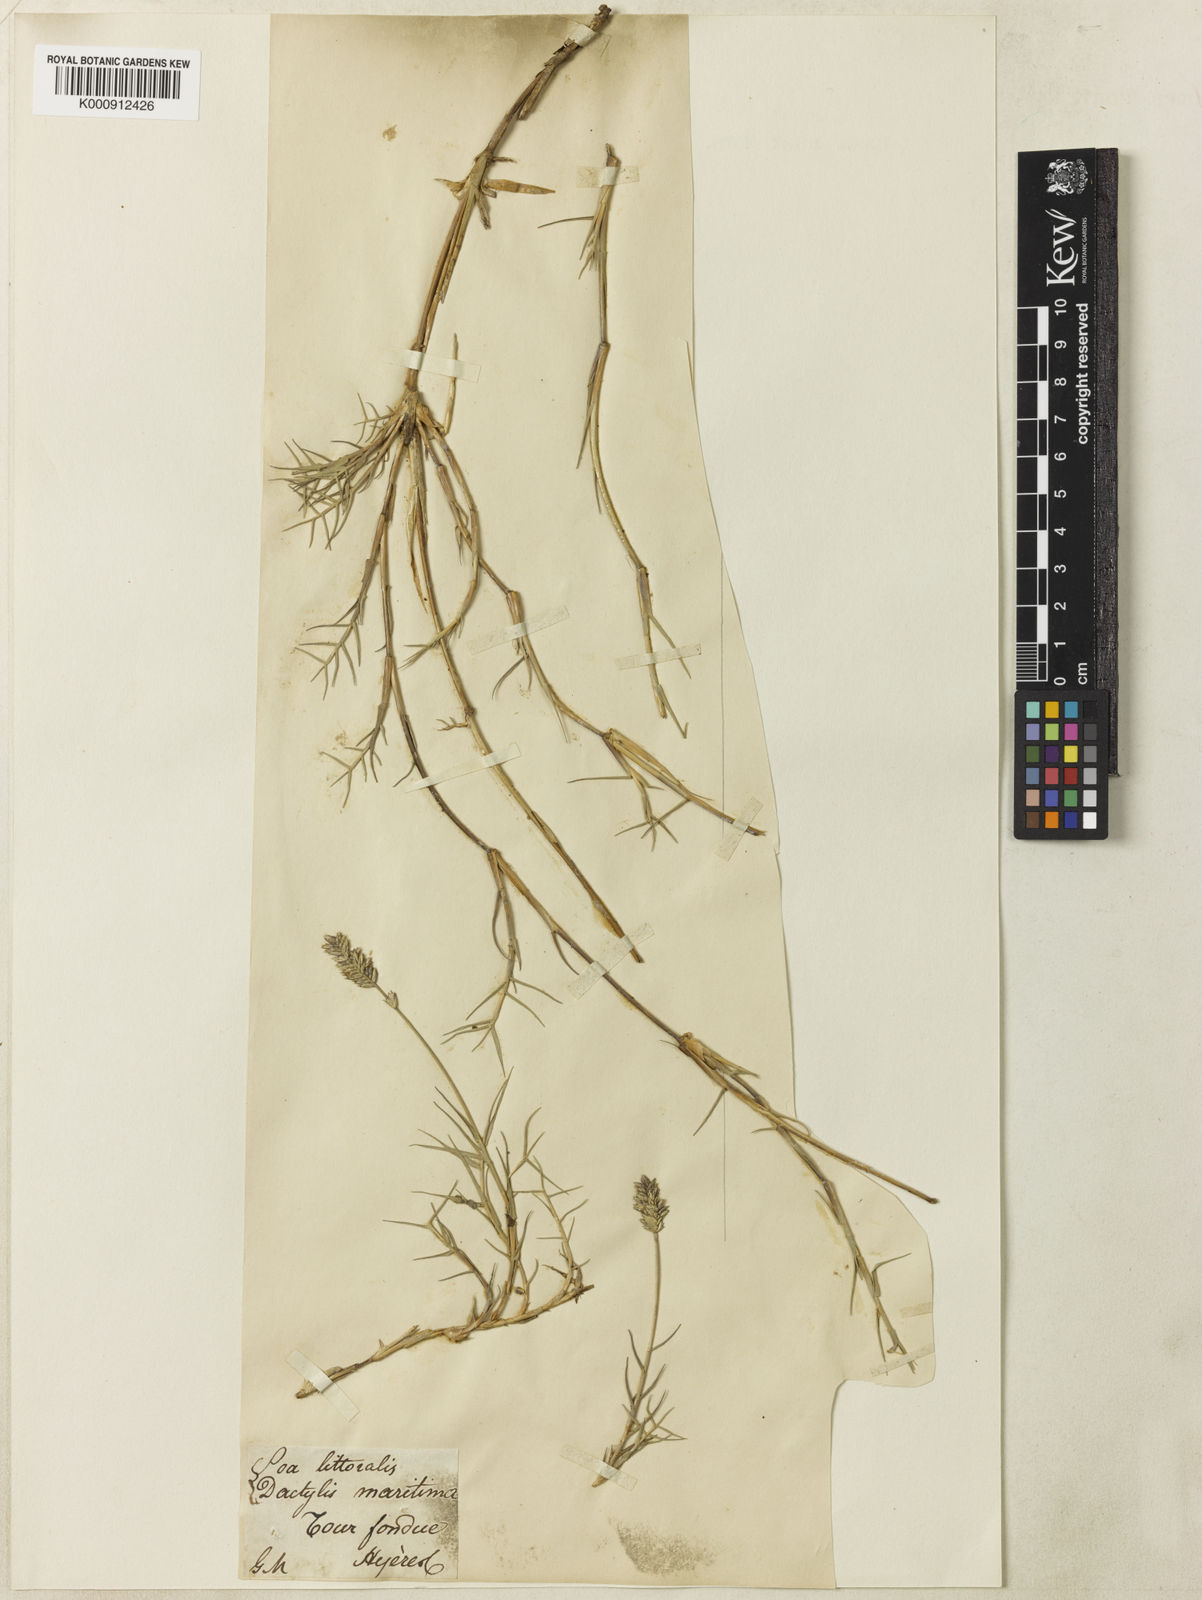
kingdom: Plantae
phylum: Tracheophyta
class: Liliopsida
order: Poales
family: Poaceae
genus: Aeluropus
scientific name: Aeluropus littoralis
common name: Indian walnut
